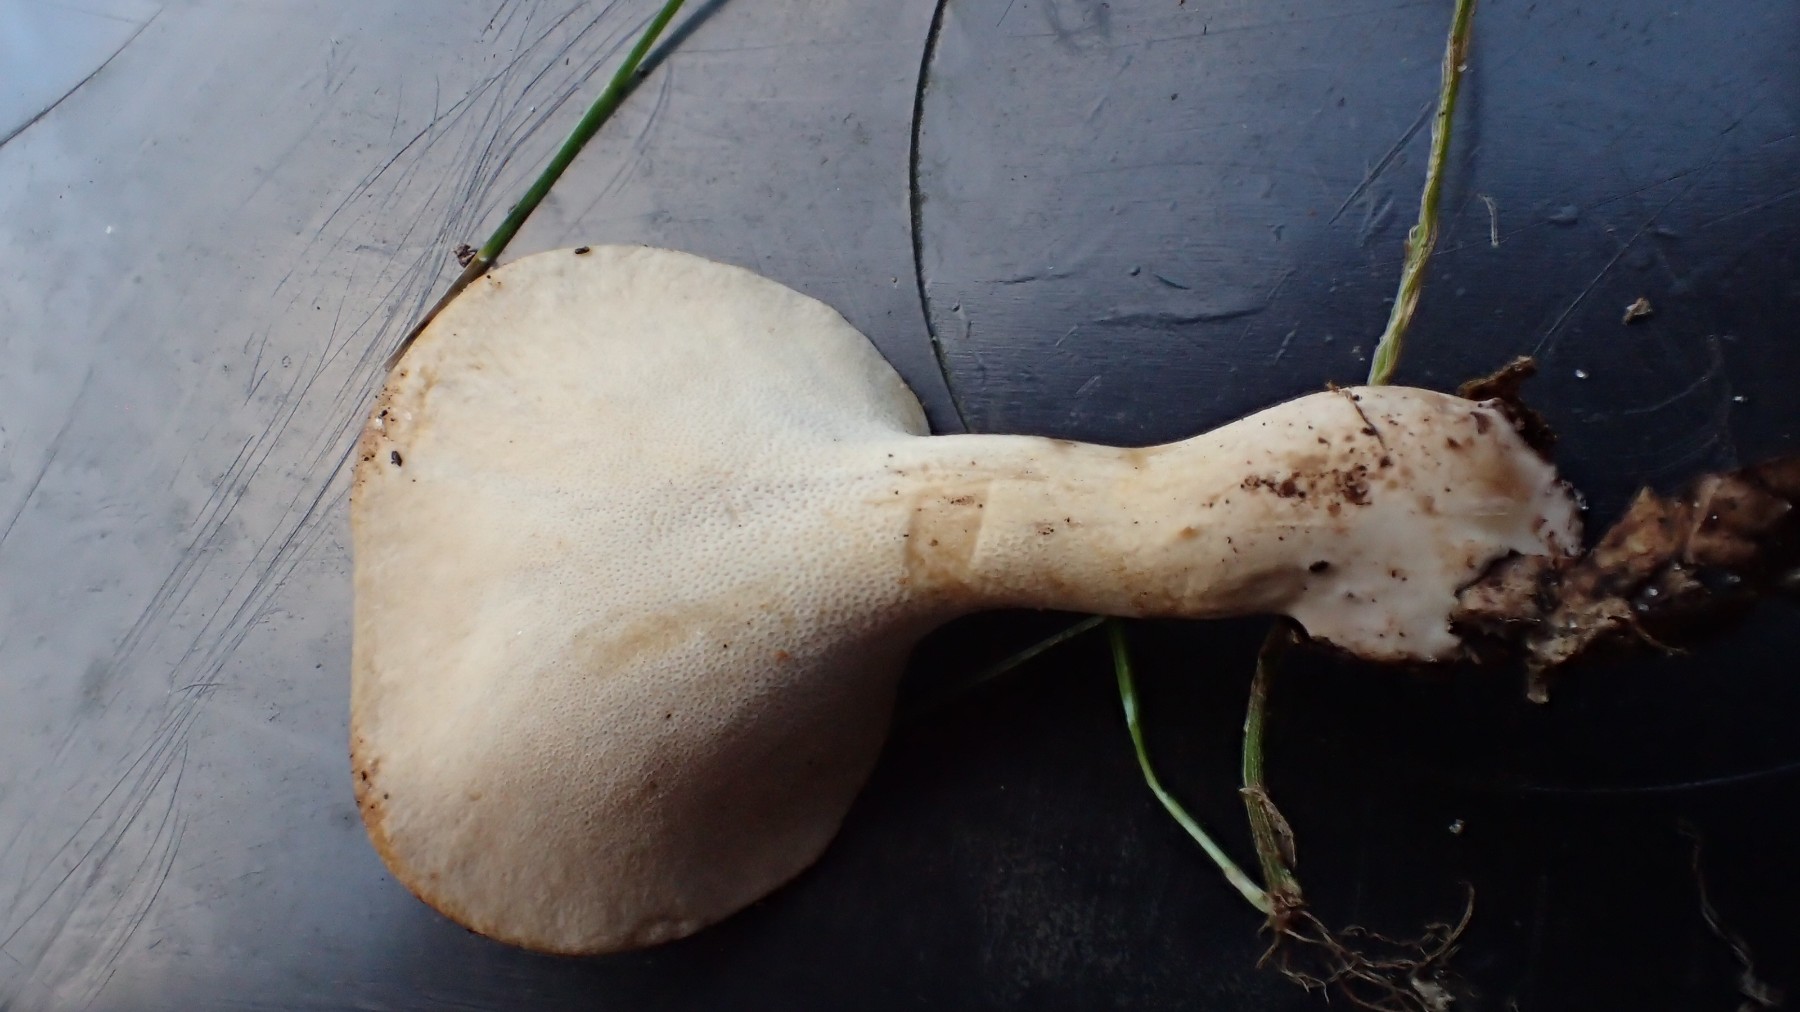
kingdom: Fungi
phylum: Basidiomycota
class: Agaricomycetes
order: Polyporales
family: Polyporaceae
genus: Cerioporus
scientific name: Cerioporus varius
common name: foranderlig stilkporesvamp
